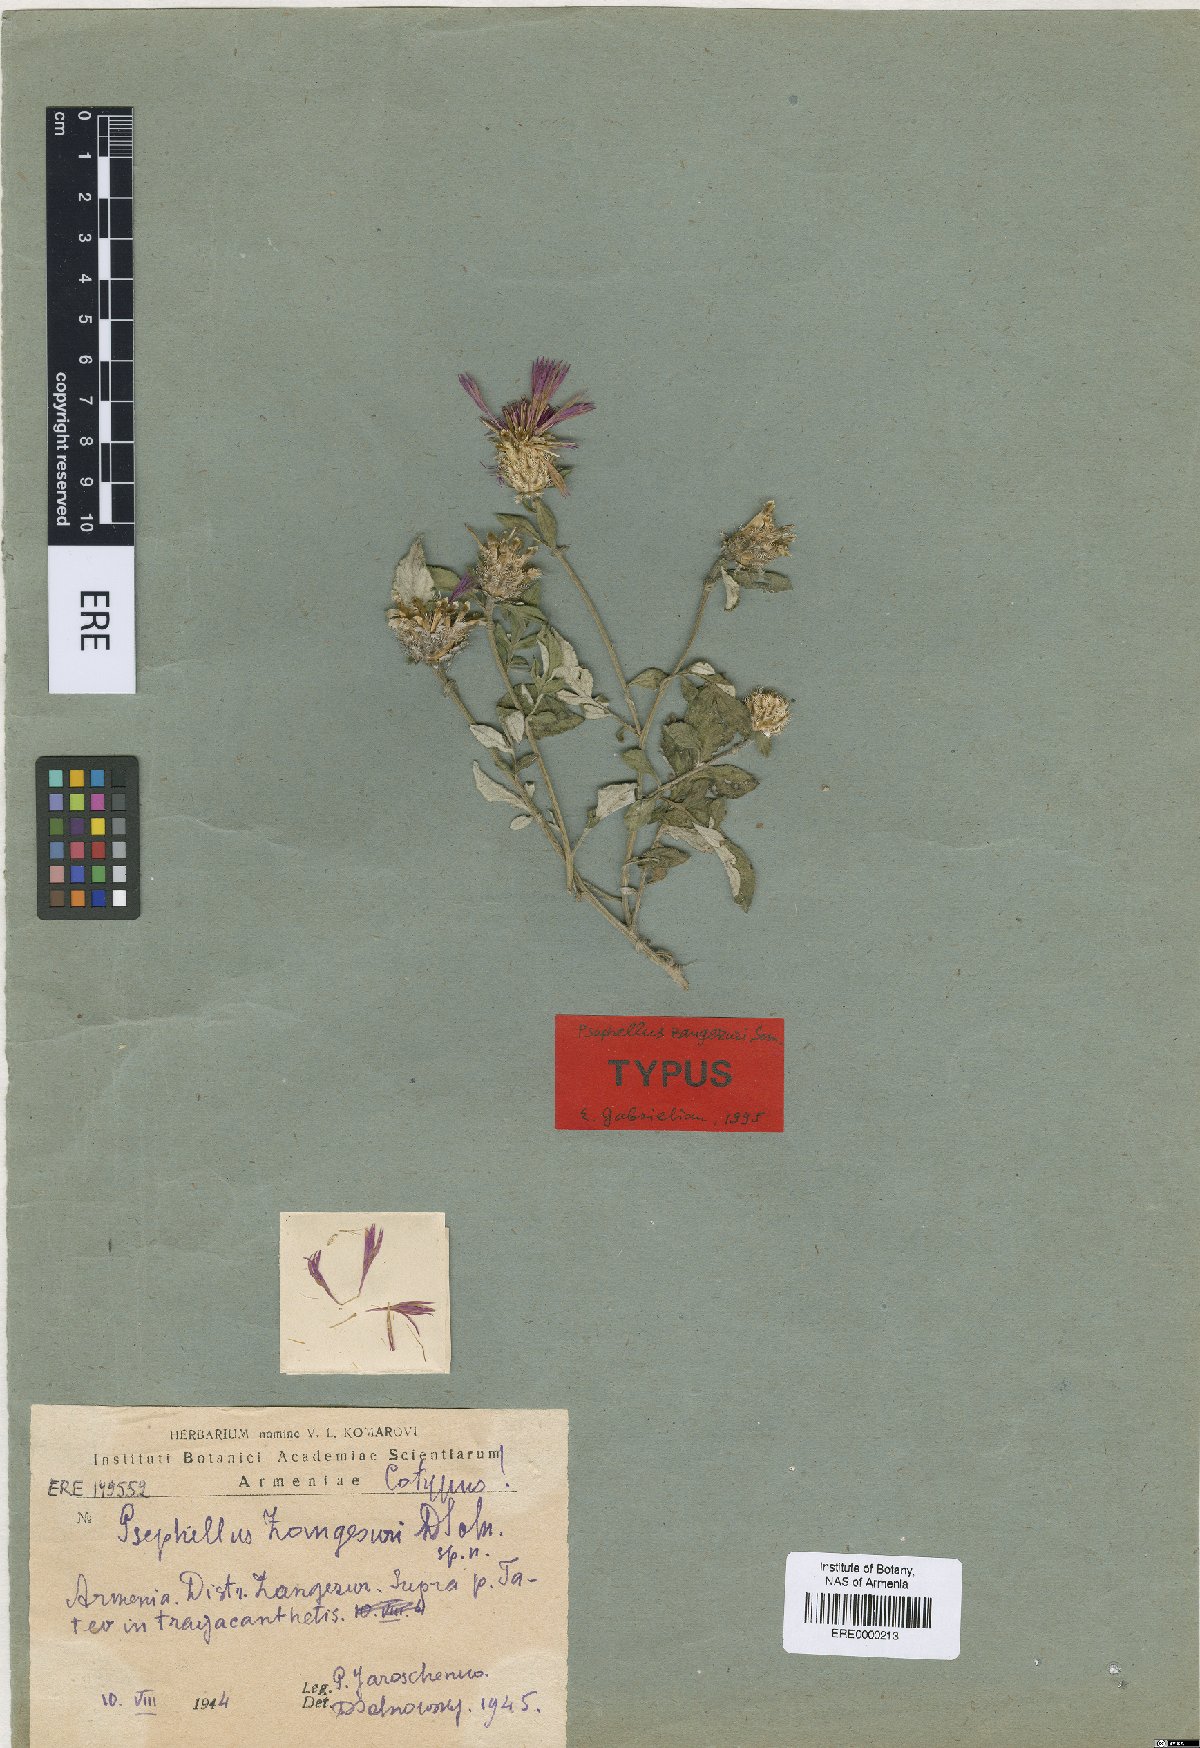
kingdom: Plantae
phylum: Tracheophyta
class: Magnoliopsida
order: Asterales
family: Asteraceae
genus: Psephellus
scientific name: Psephellus zangezuri
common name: Zangezurian cornflower
